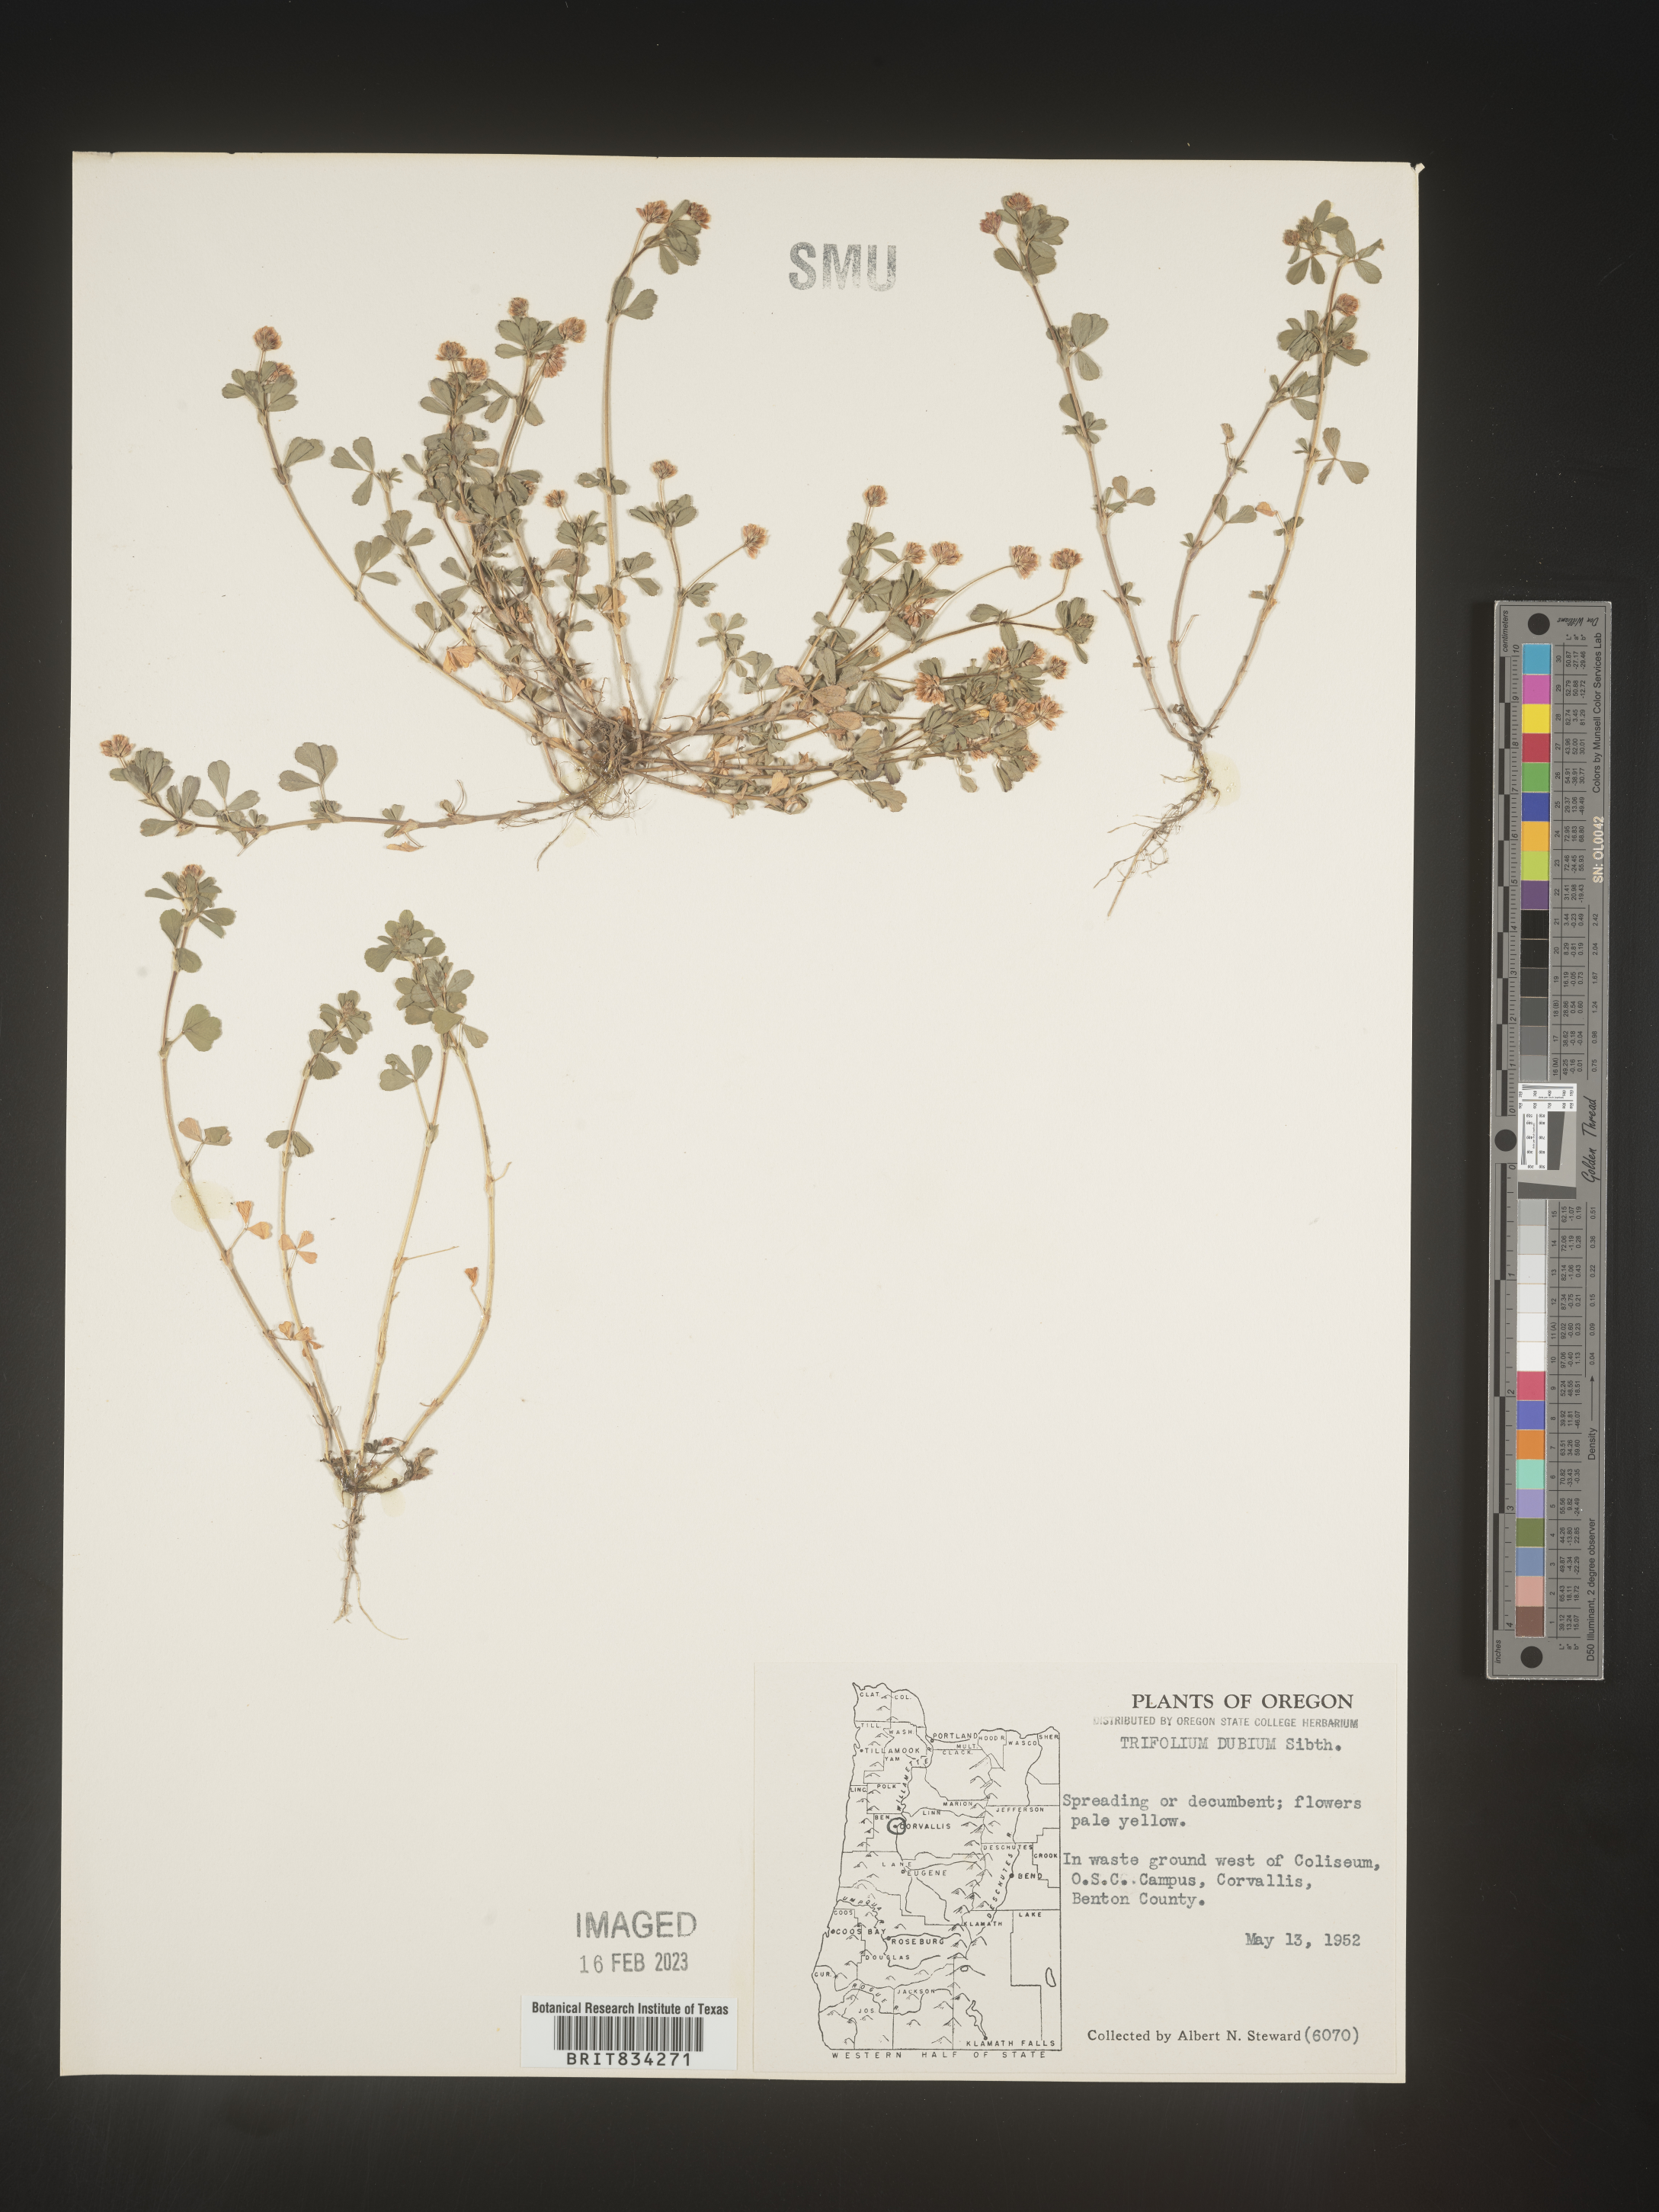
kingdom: Plantae
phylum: Tracheophyta
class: Magnoliopsida
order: Fabales
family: Fabaceae
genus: Trifolium
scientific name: Trifolium dubium
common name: Suckling clover
